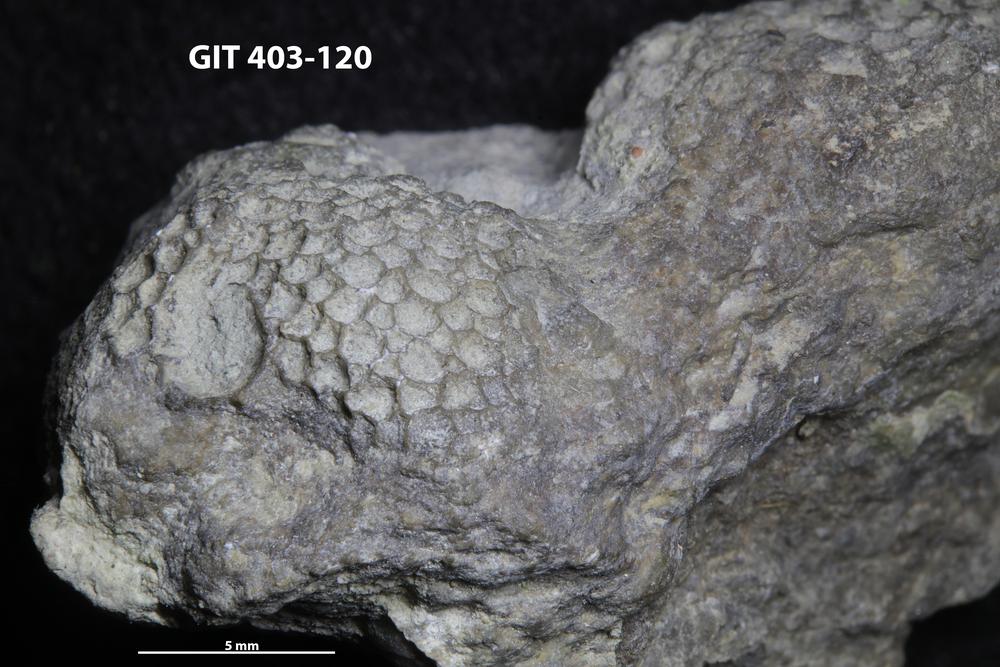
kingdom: Animalia
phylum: Cnidaria
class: Anthozoa
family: Favositidae
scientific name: Favositidae
